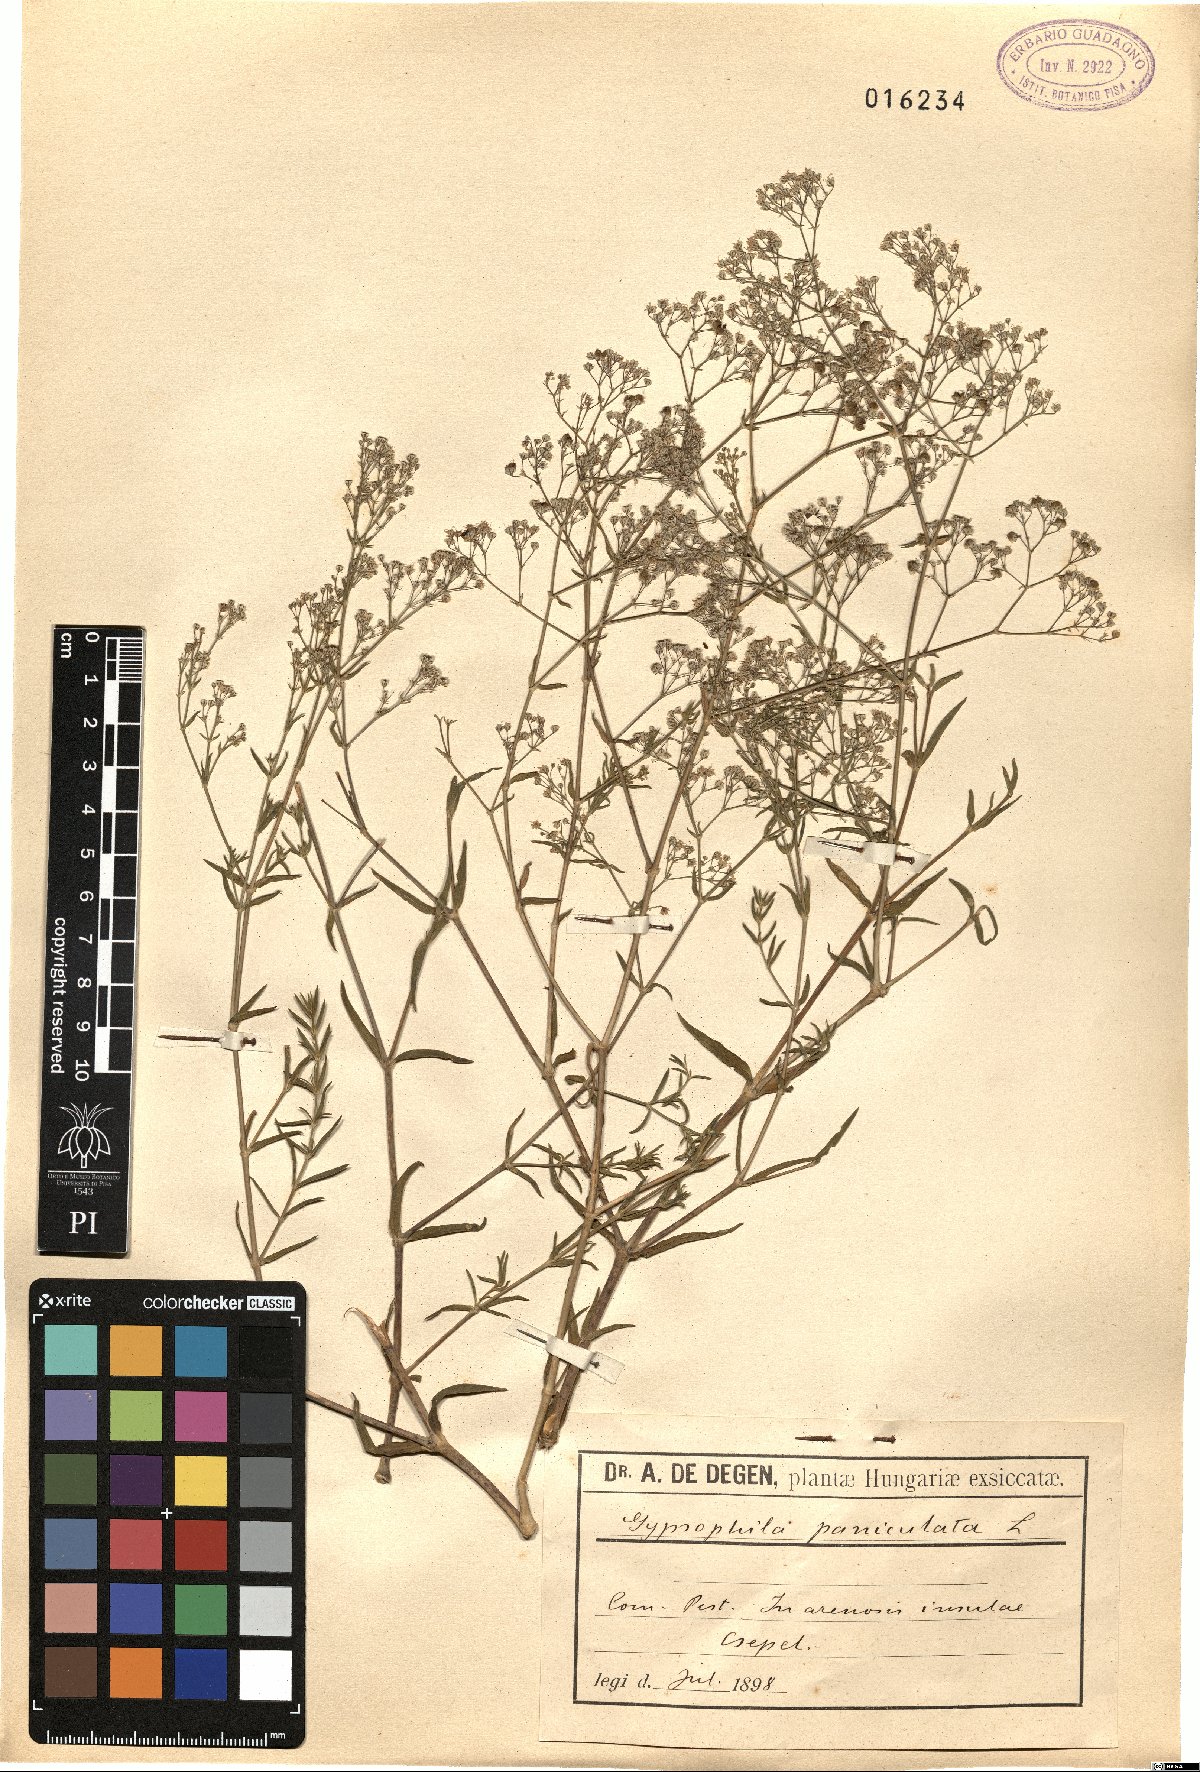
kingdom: Plantae
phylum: Tracheophyta
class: Magnoliopsida
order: Caryophyllales
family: Caryophyllaceae
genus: Gypsophila
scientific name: Gypsophila paniculata
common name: Baby's-breath
